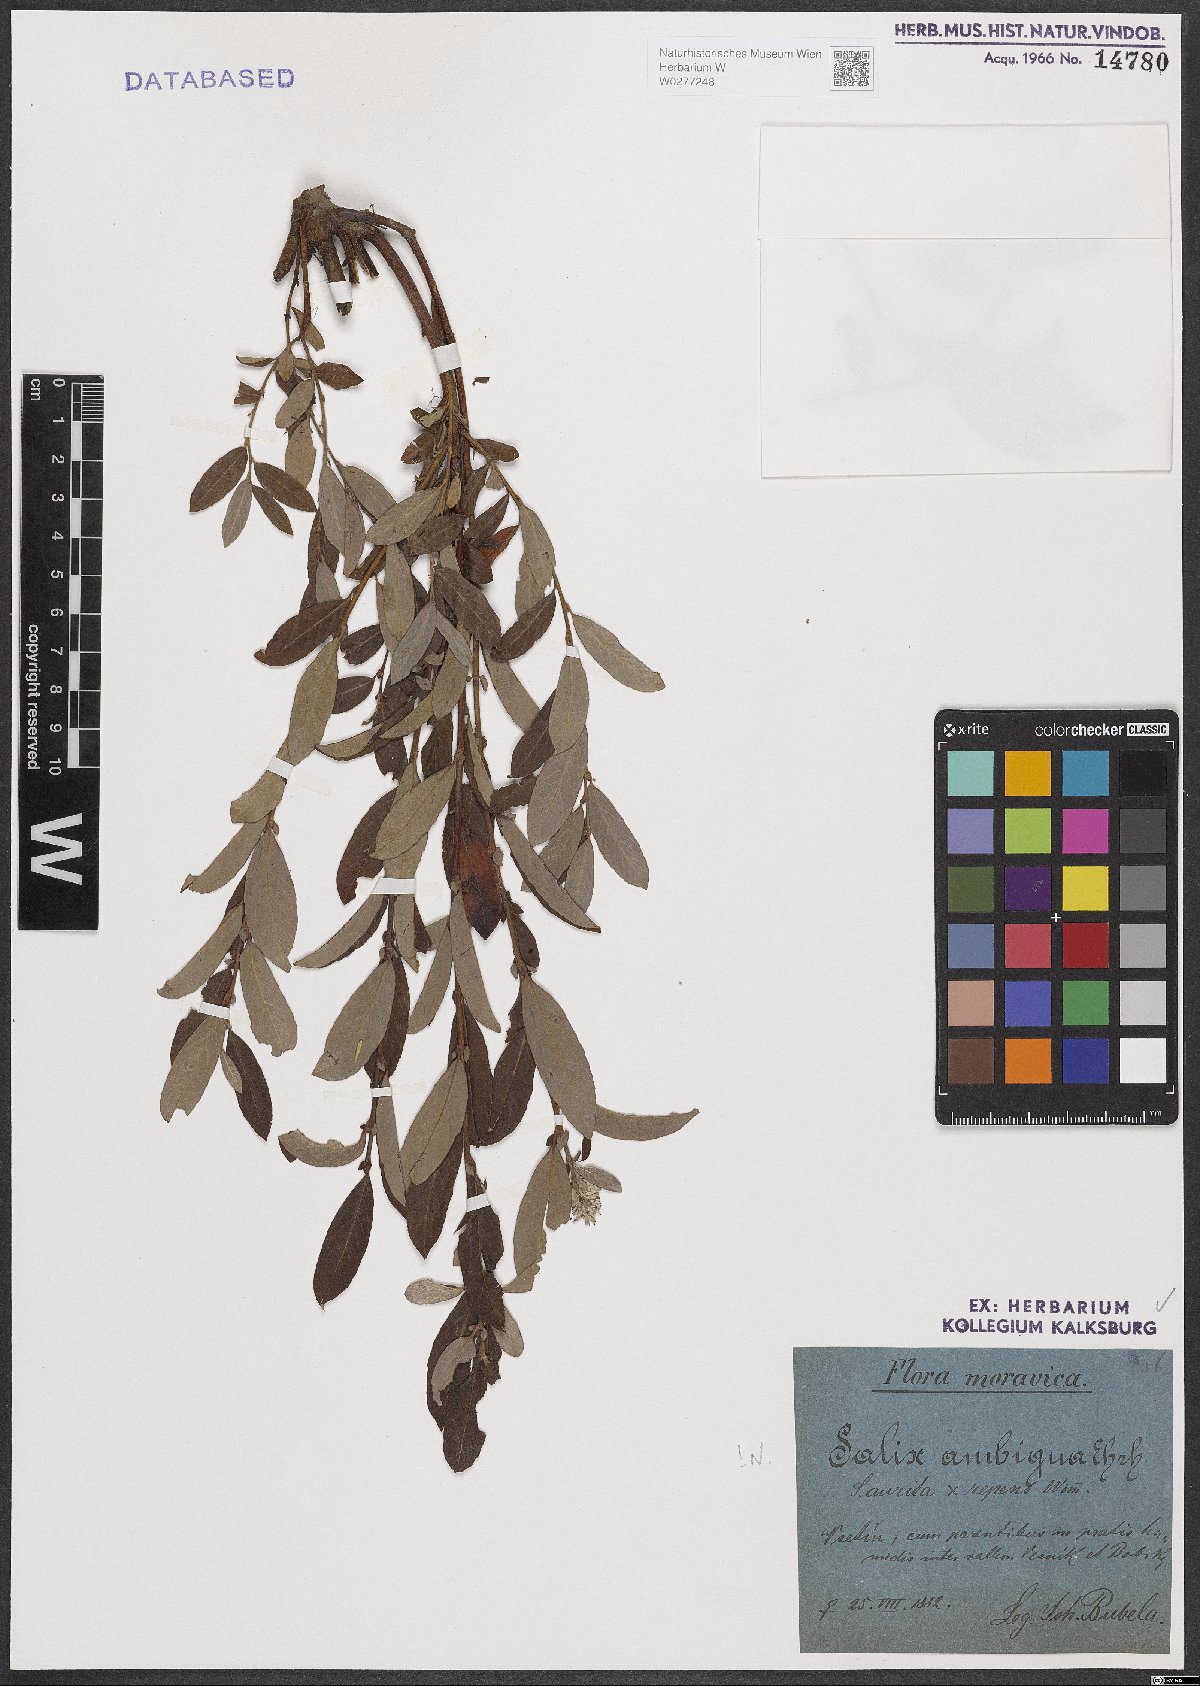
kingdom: Plantae
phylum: Tracheophyta
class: Magnoliopsida
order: Malpighiales
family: Salicaceae
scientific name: Salicaceae
